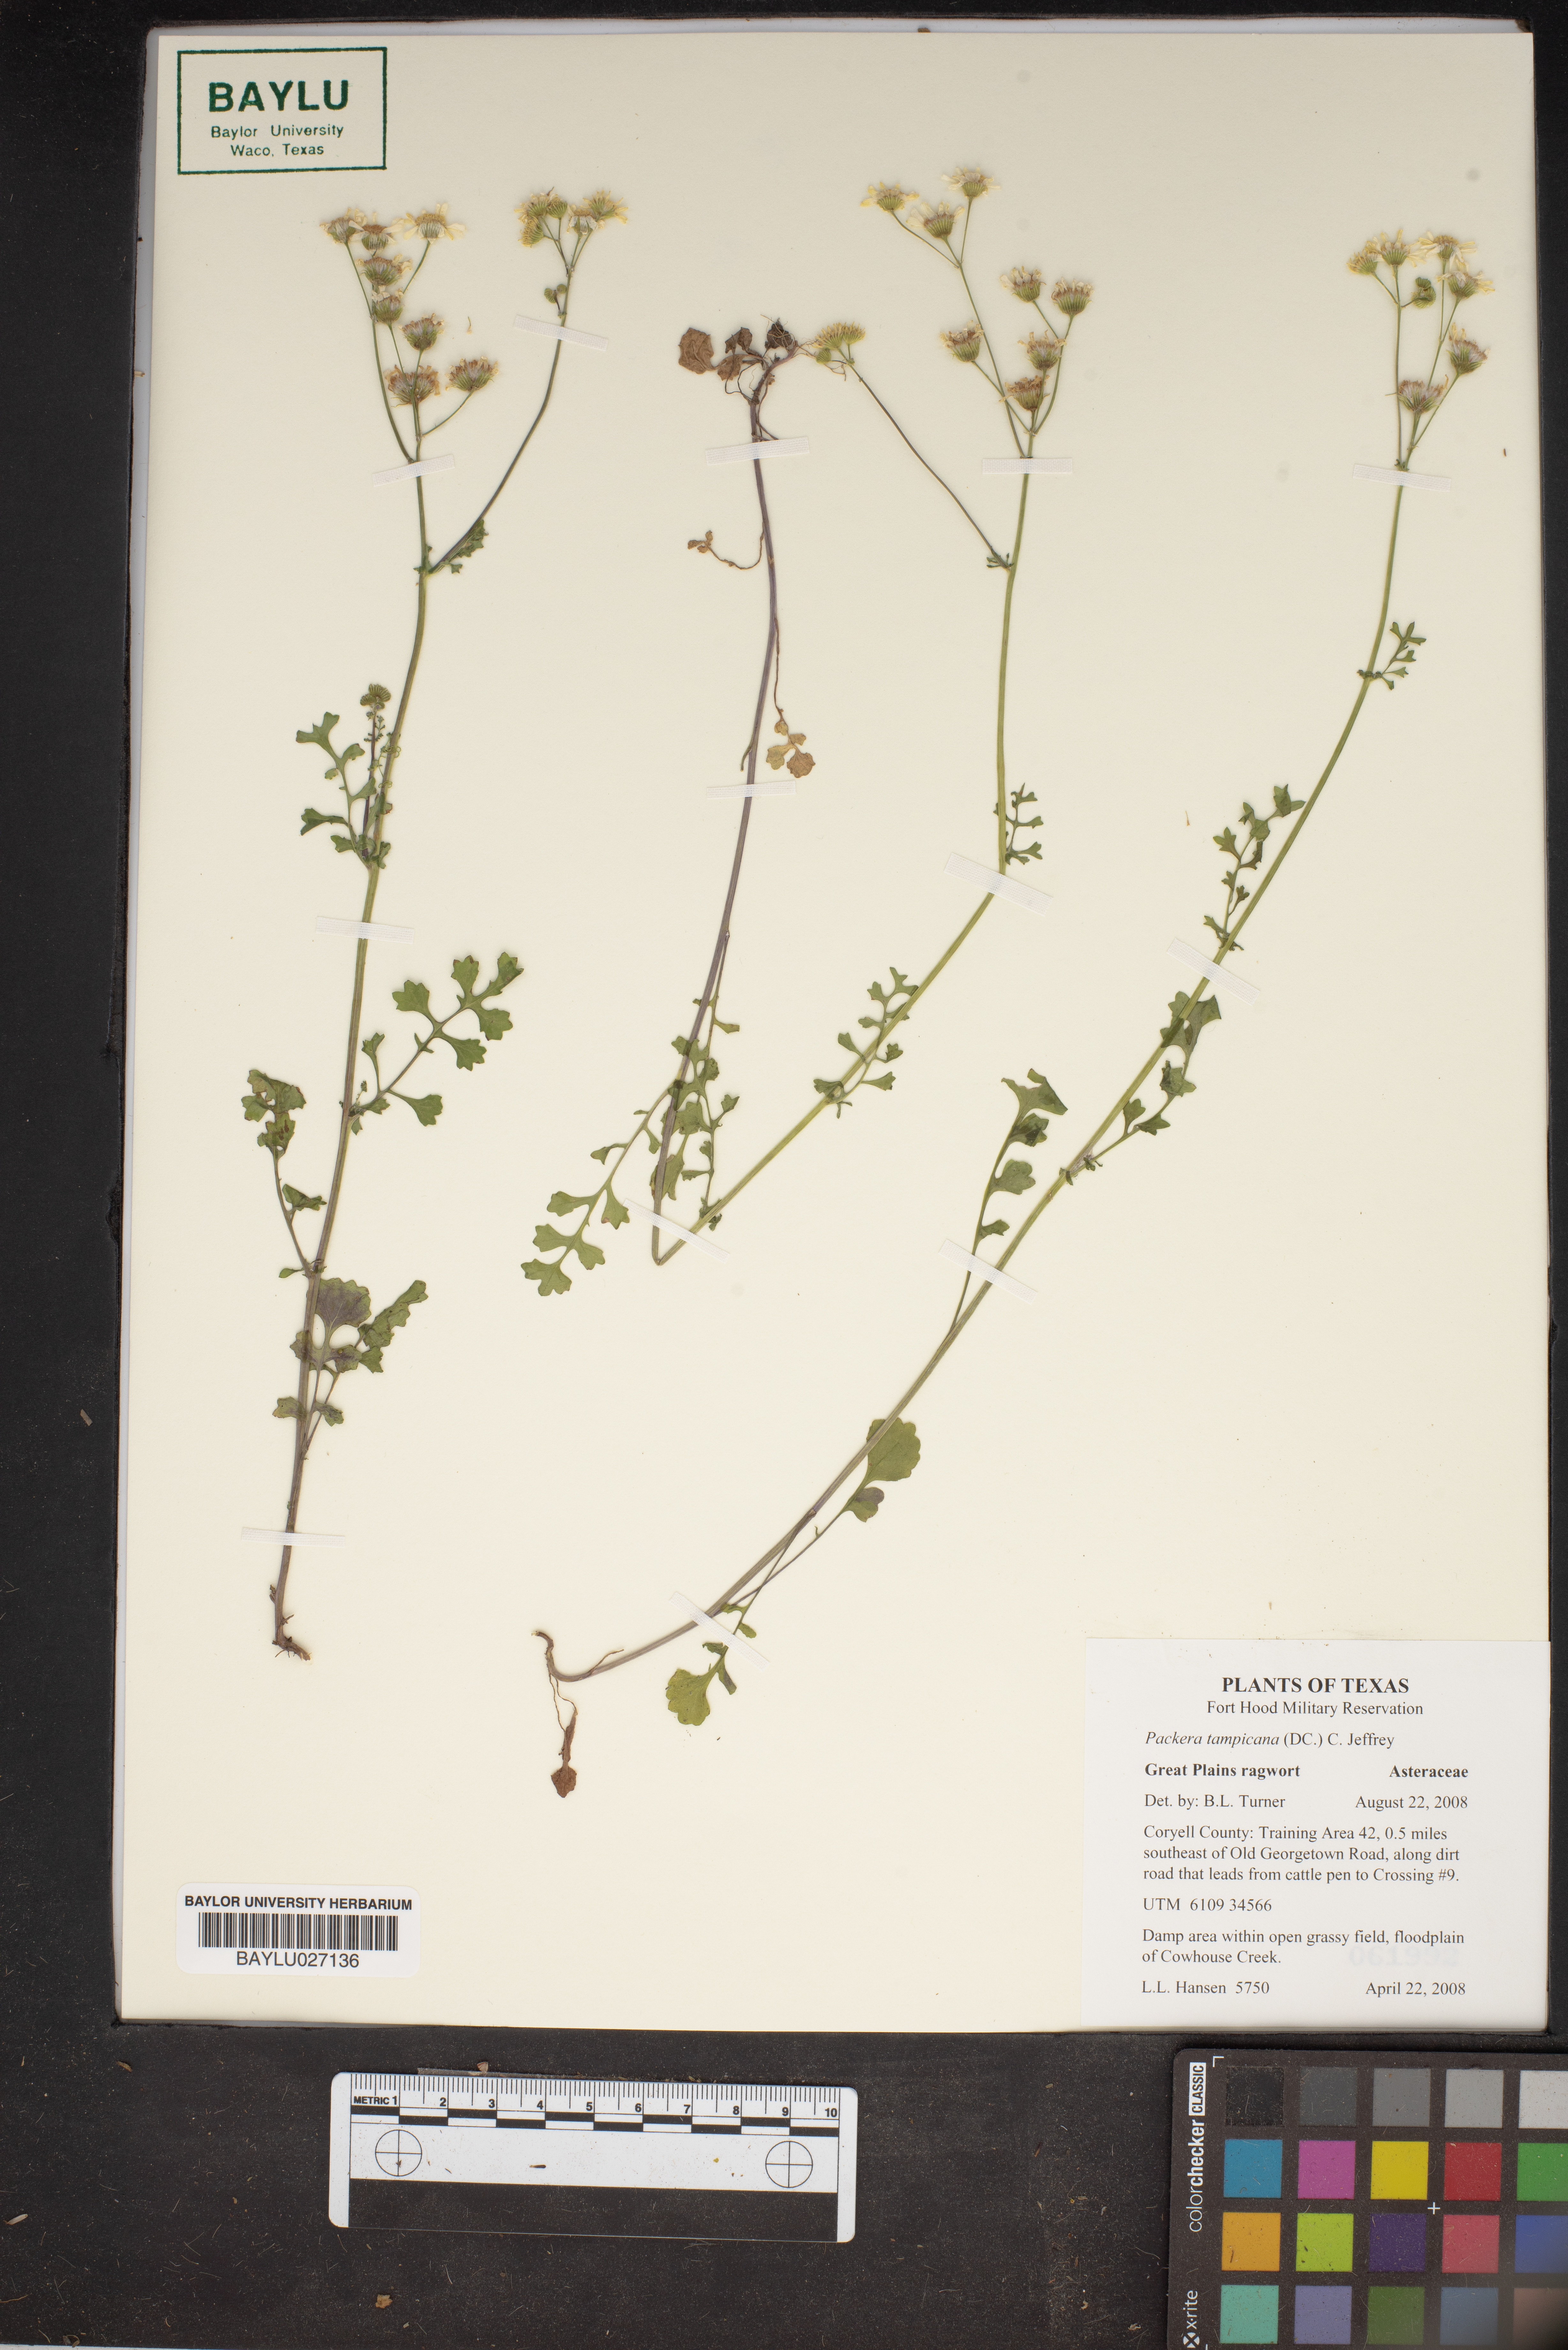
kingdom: Plantae
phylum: Tracheophyta
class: Magnoliopsida
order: Asterales
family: Asteraceae
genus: Packera
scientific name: Packera tampicana
